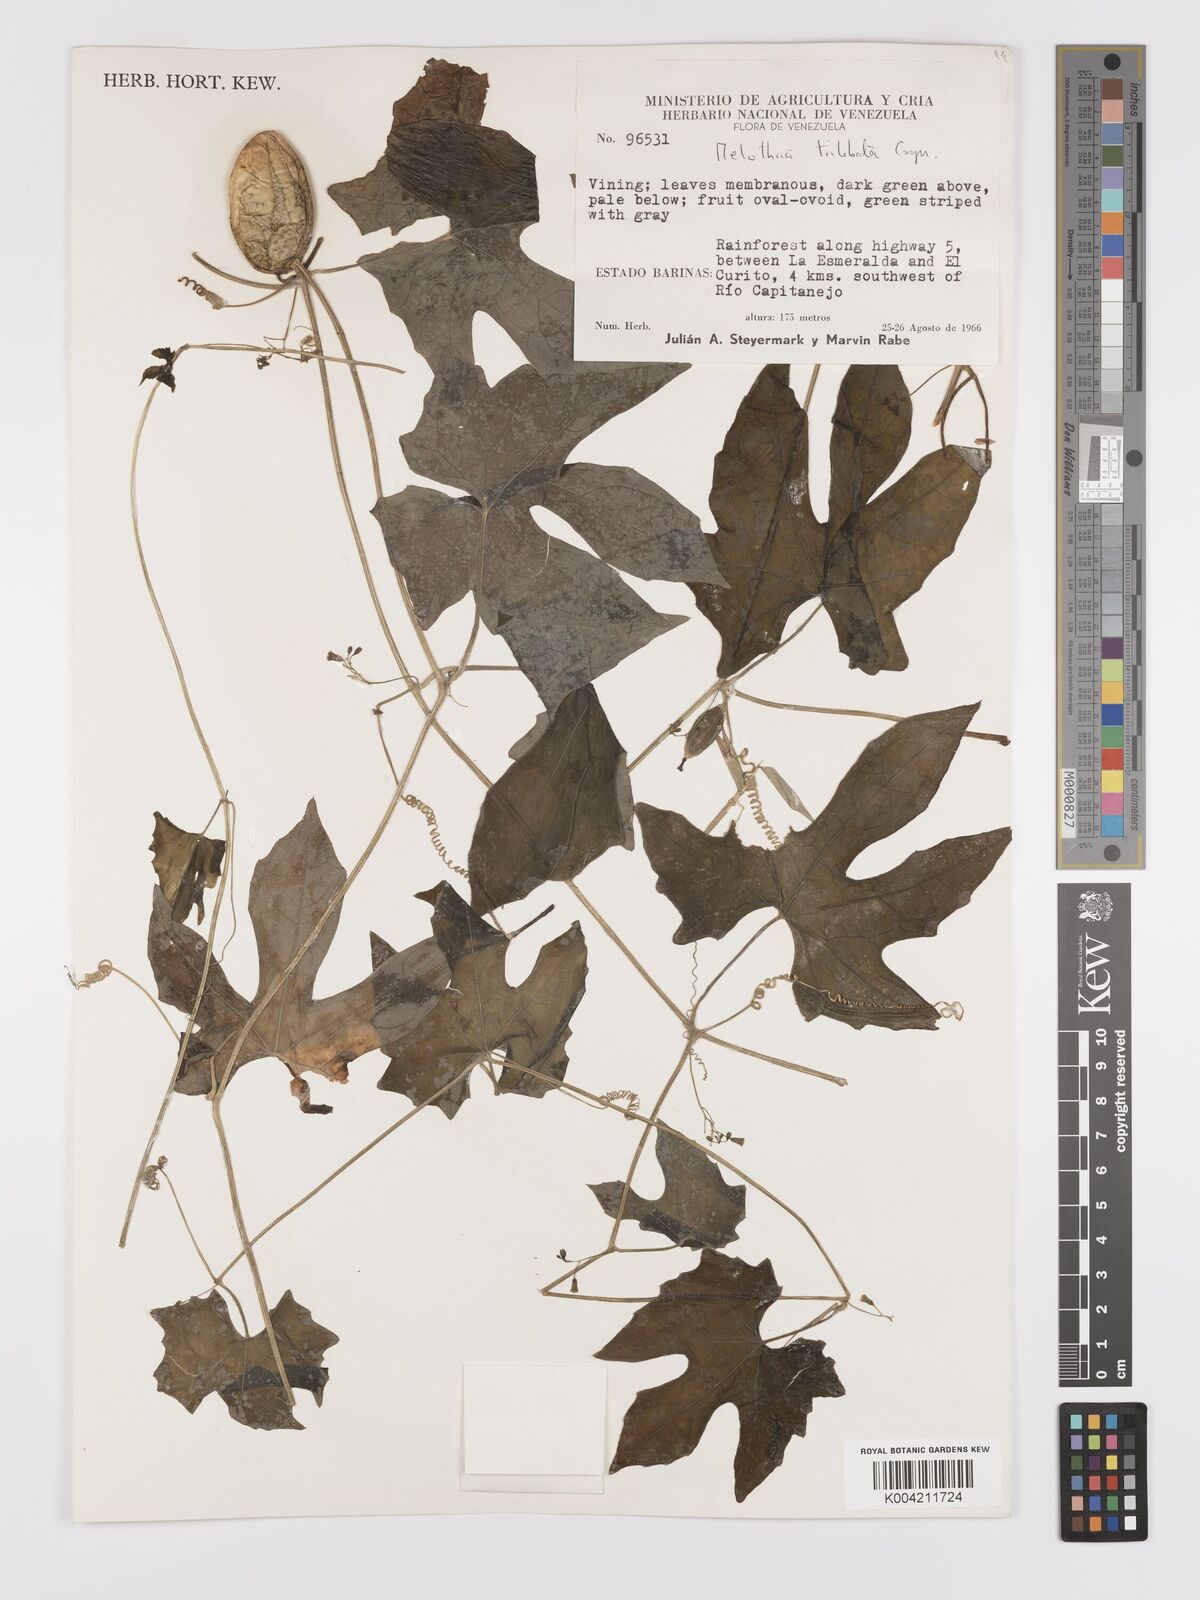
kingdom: Plantae
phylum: Tracheophyta
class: Magnoliopsida
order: Cucurbitales
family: Cucurbitaceae
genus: Melothria
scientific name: Melothria trilobata
